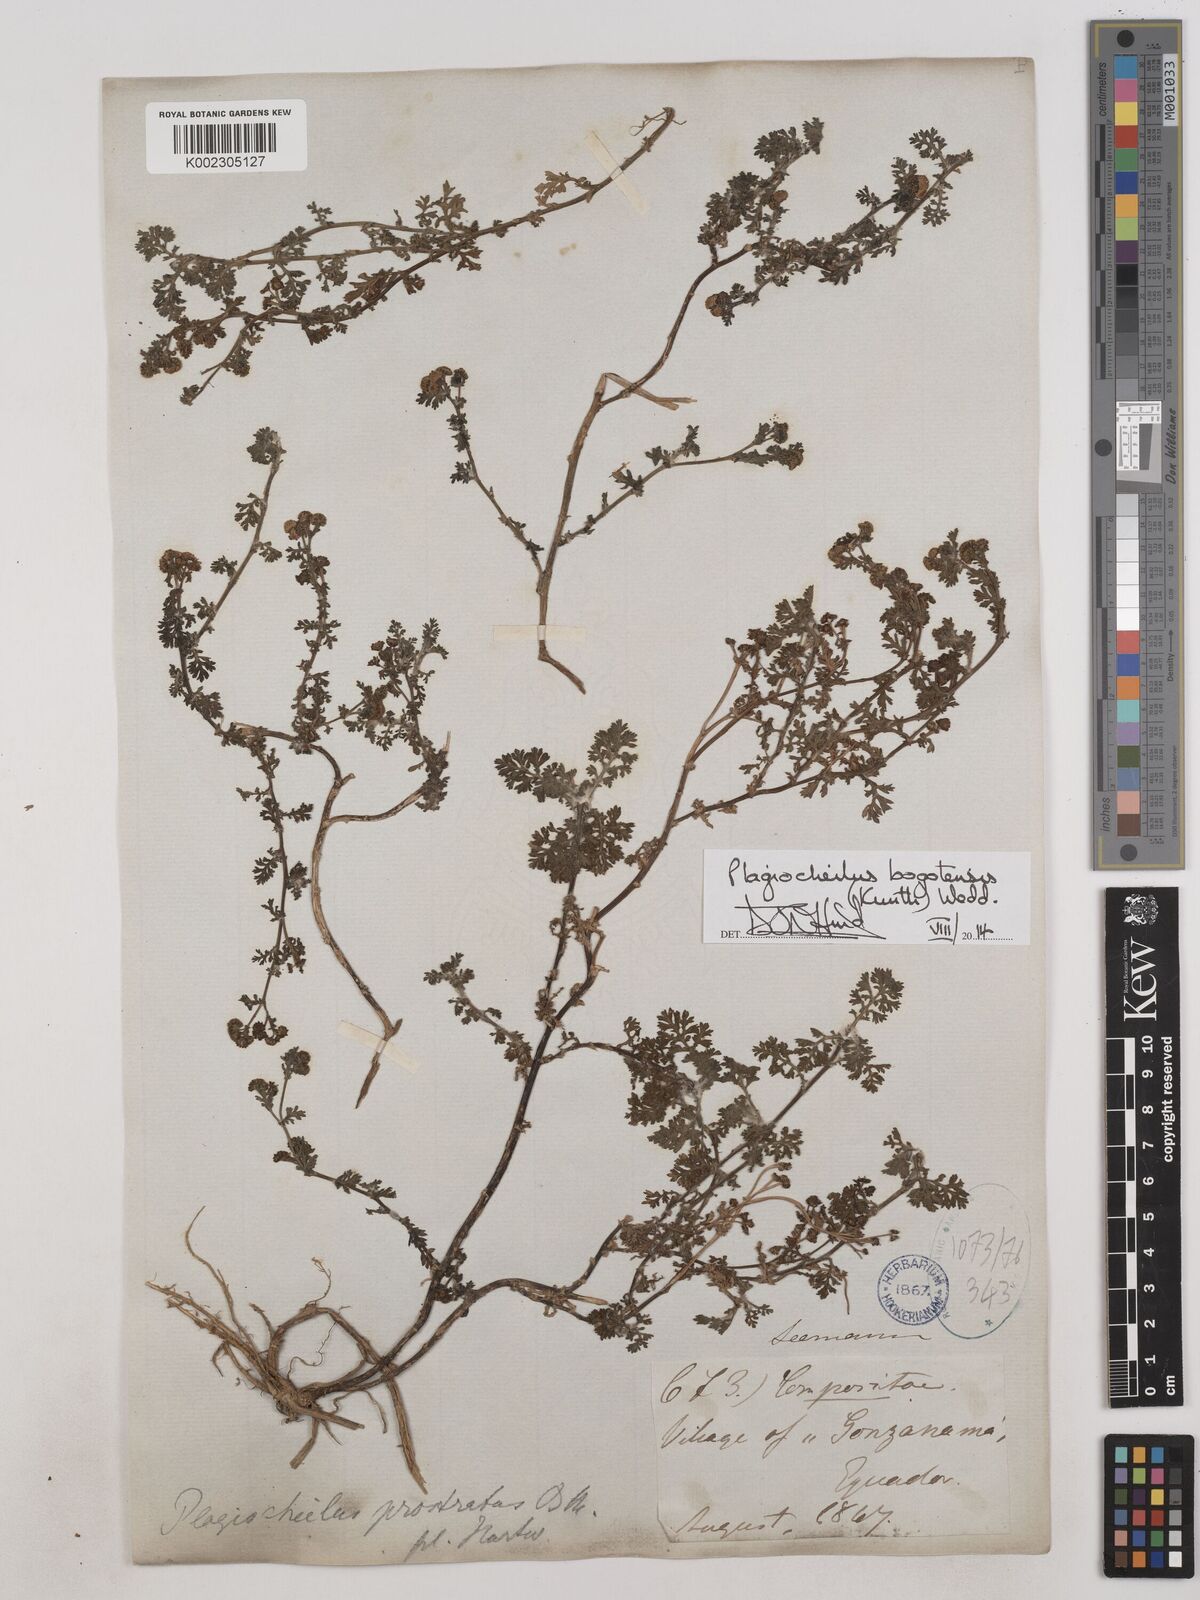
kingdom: Plantae
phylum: Tracheophyta
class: Magnoliopsida
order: Asterales
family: Asteraceae
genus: Plagiocheilus
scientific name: Plagiocheilus bogotensis
